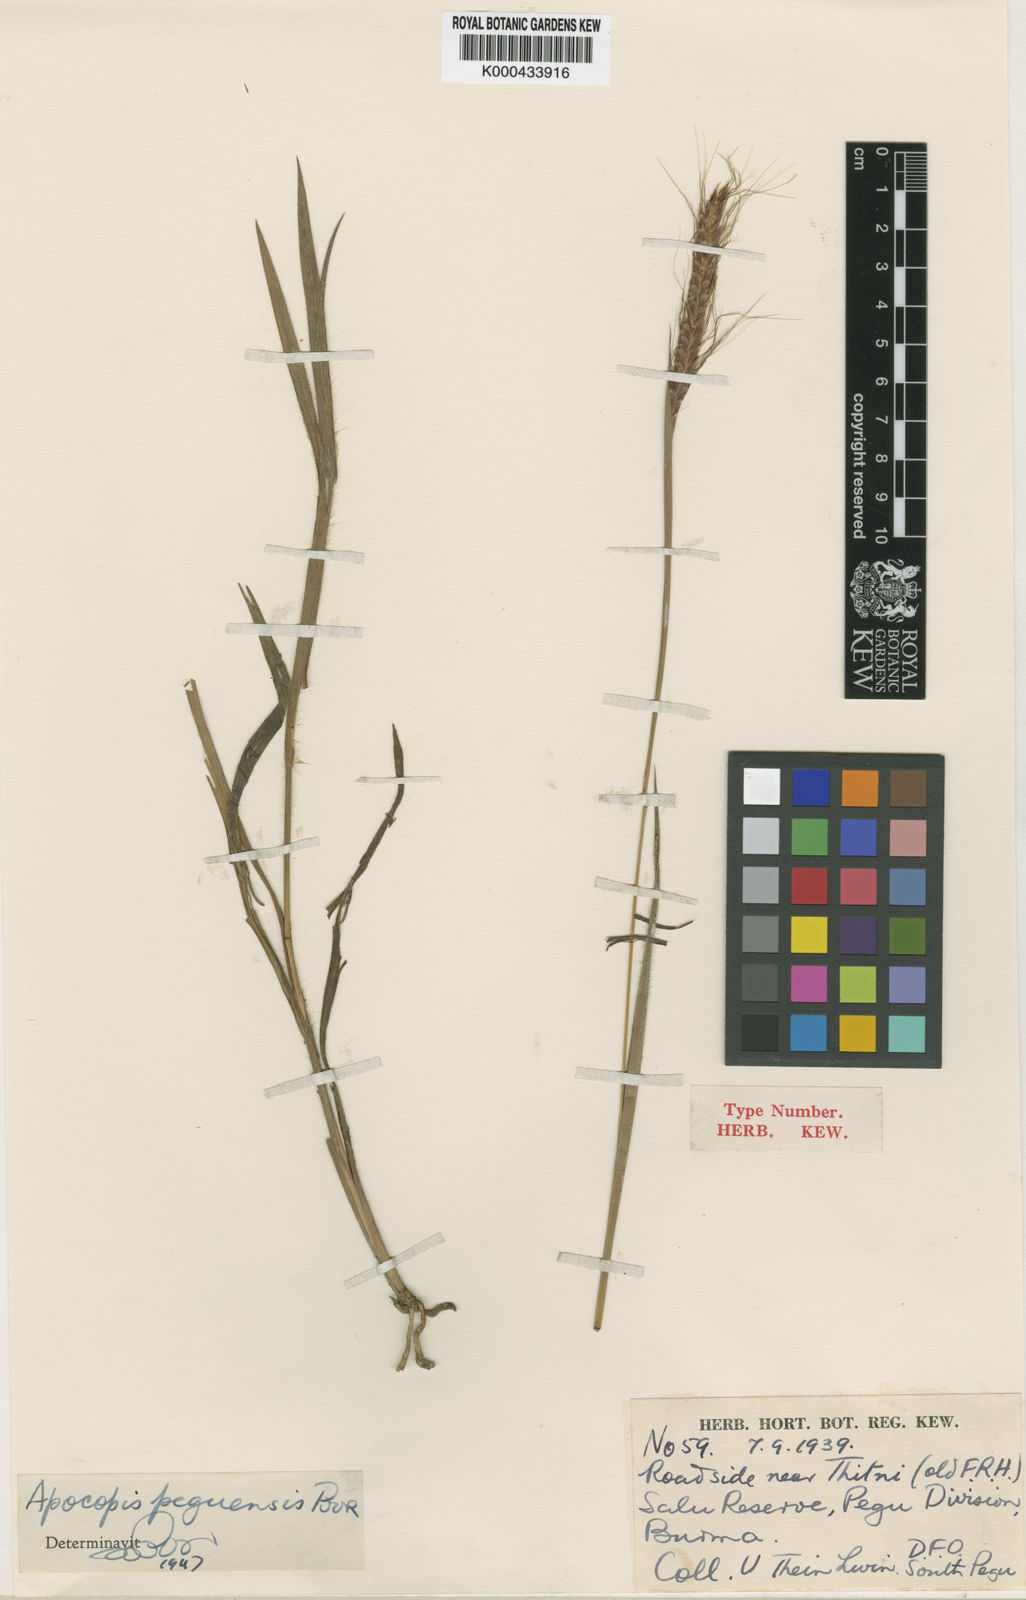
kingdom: Plantae
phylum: Tracheophyta
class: Liliopsida
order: Poales
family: Poaceae
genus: Apocopis
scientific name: Apocopis peguensis
